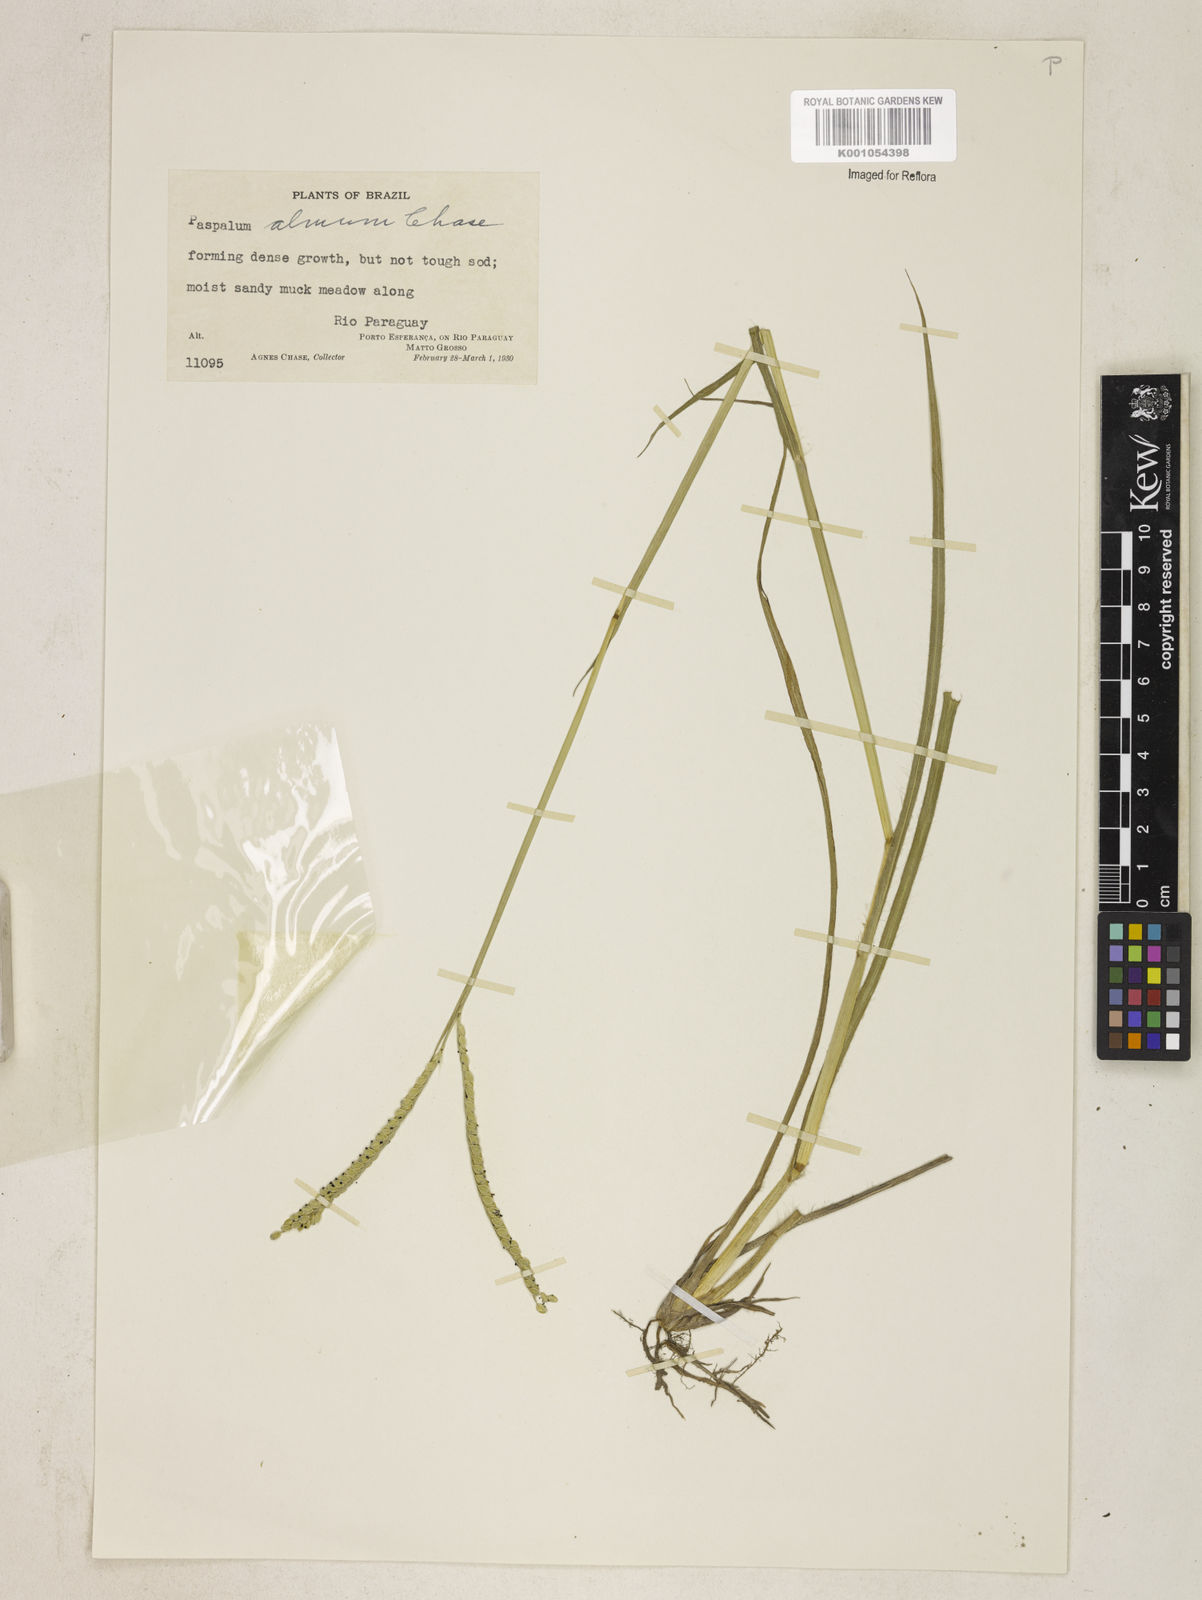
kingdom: Plantae
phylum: Tracheophyta
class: Liliopsida
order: Poales
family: Poaceae
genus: Paspalum
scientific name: Paspalum almum
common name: Comb's crowngrass
